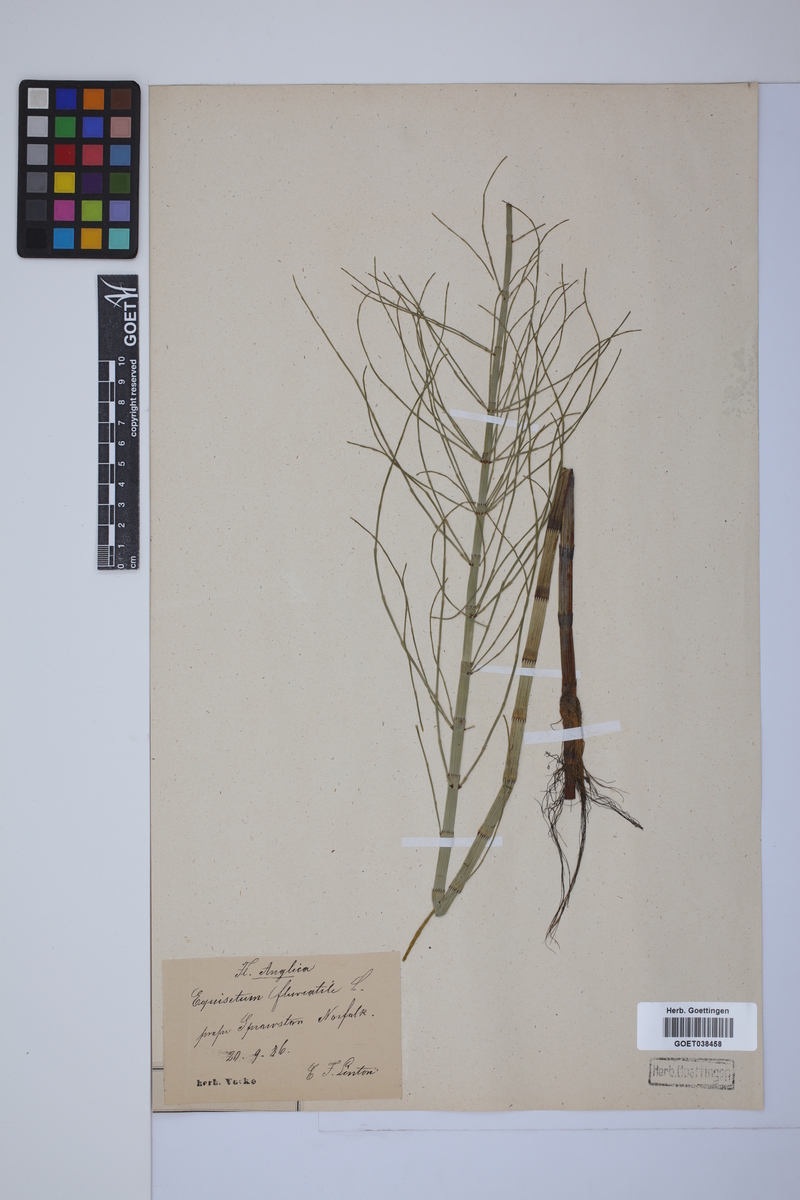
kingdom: Plantae
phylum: Tracheophyta
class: Polypodiopsida
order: Equisetales
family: Equisetaceae
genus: Equisetum
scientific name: Equisetum fluviatile
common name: Water horsetail
